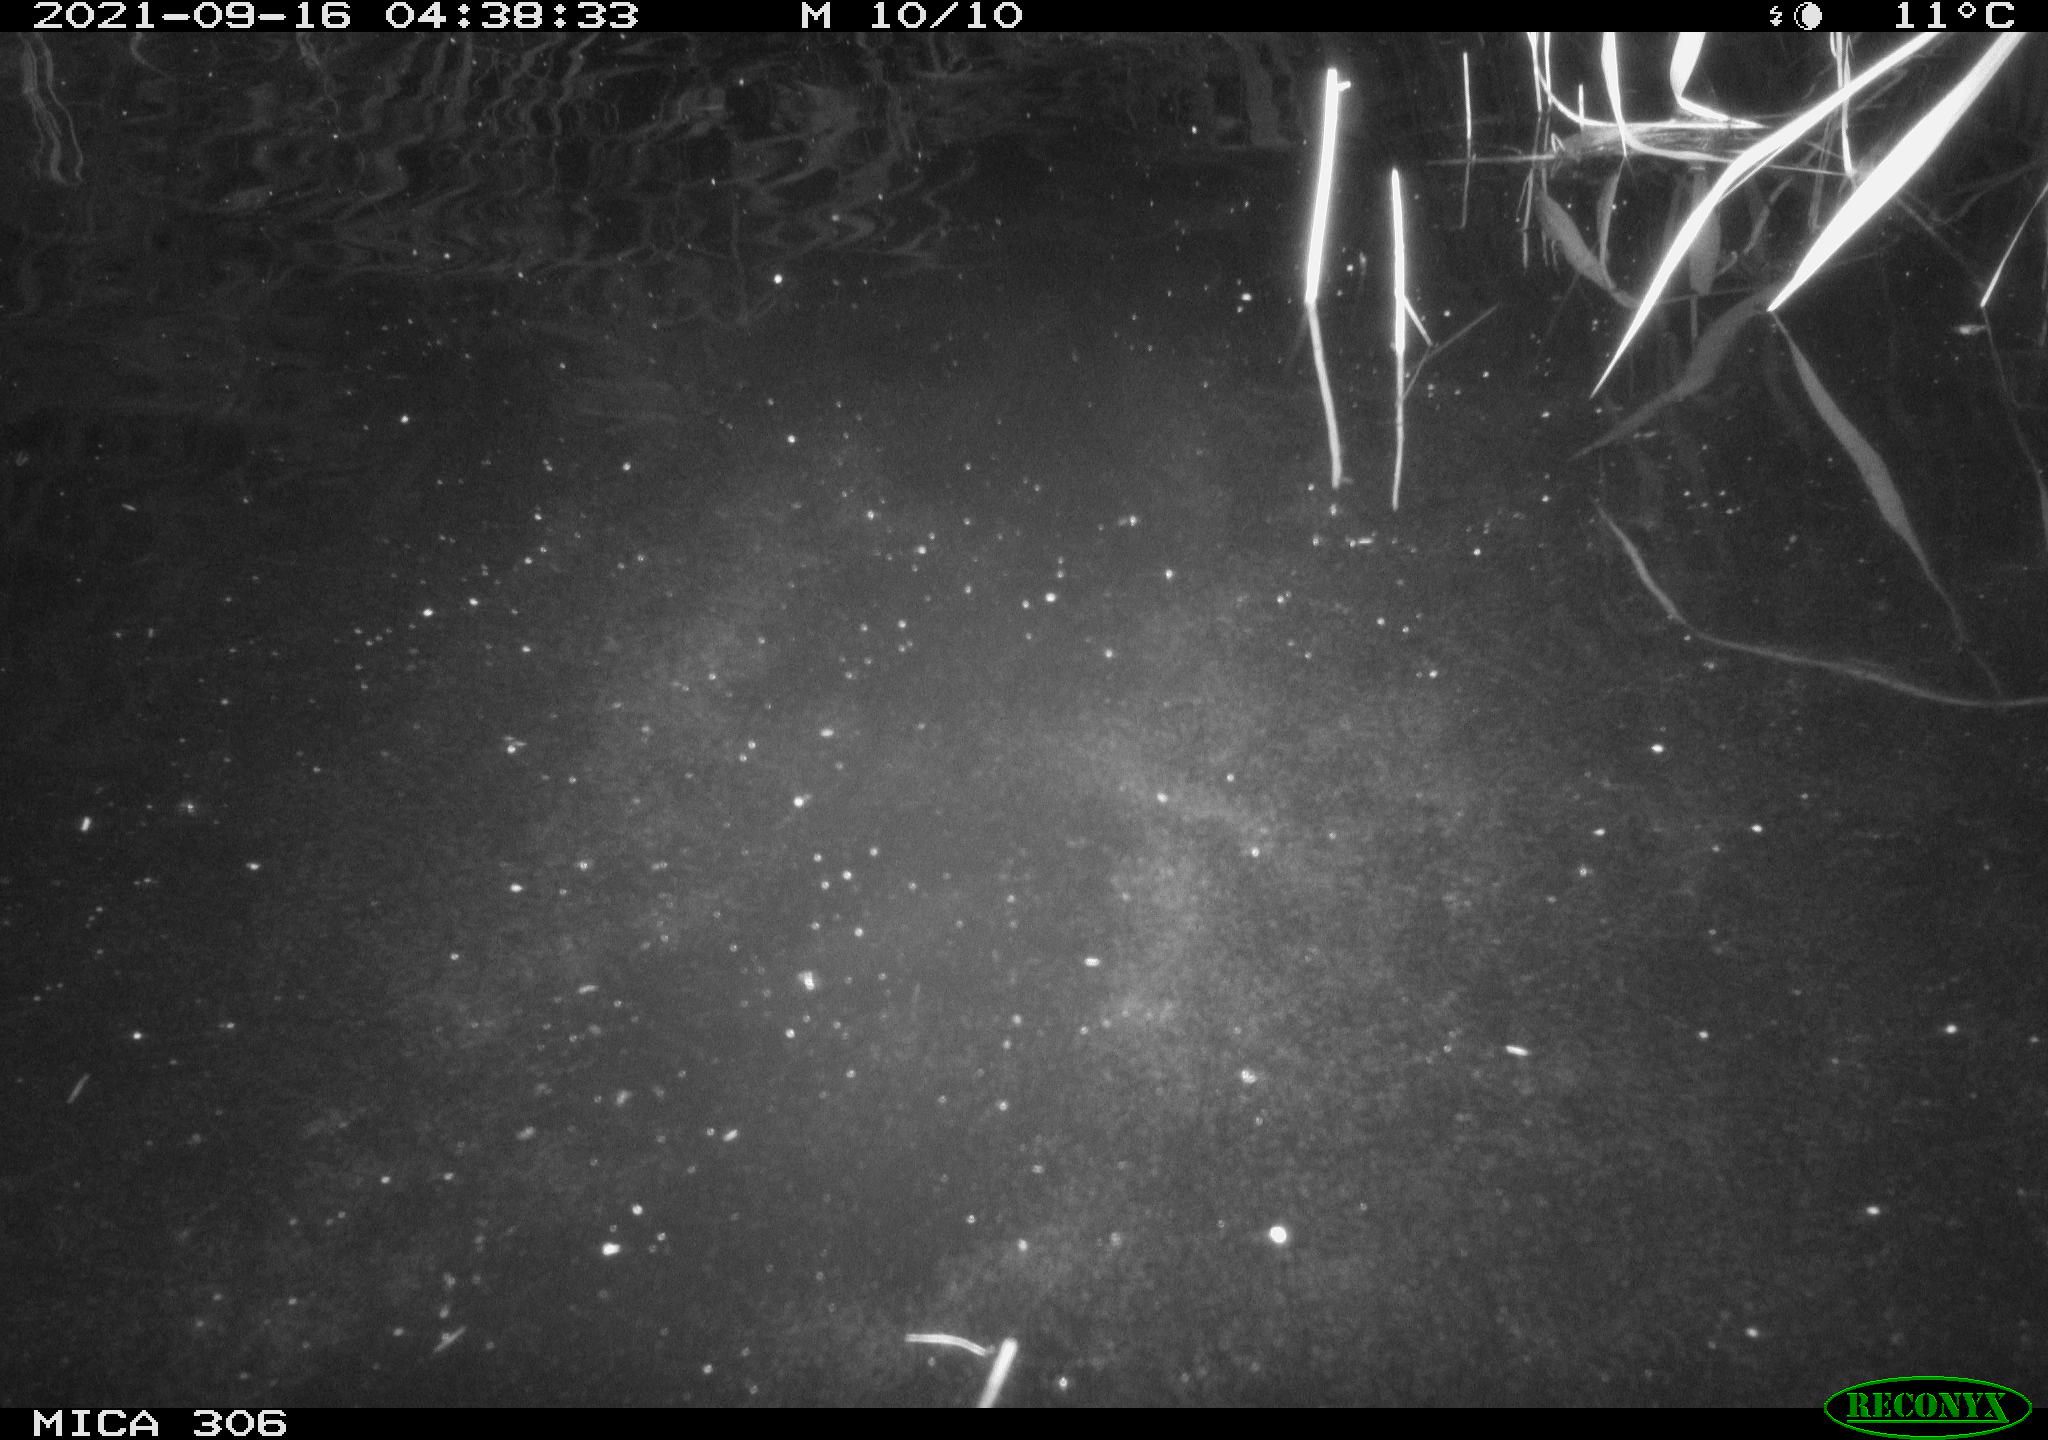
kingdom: Animalia
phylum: Chordata
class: Mammalia
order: Rodentia
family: Cricetidae
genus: Ondatra
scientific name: Ondatra zibethicus
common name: Muskrat
